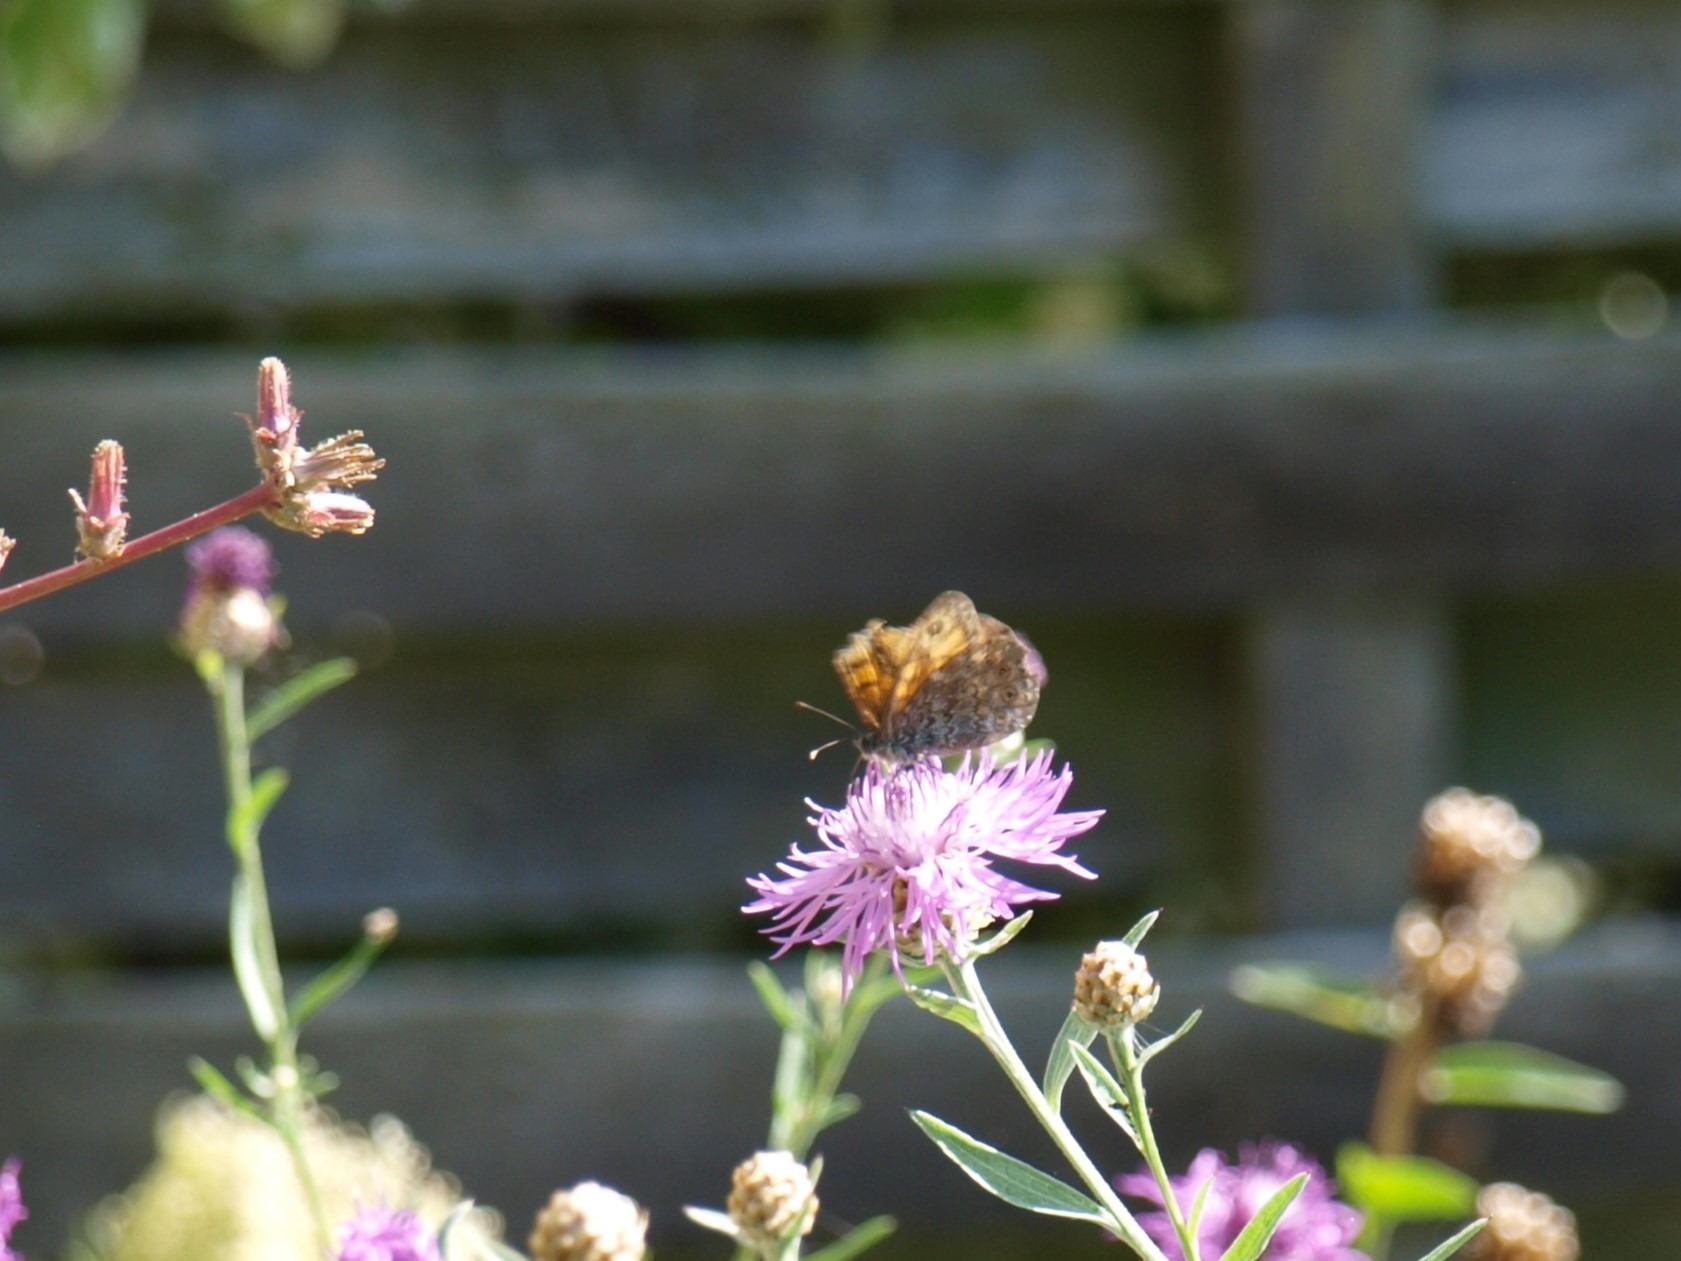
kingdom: Animalia
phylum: Arthropoda
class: Insecta
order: Lepidoptera
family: Nymphalidae
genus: Pararge
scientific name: Pararge Lasiommata megera
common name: Vejrandøje
